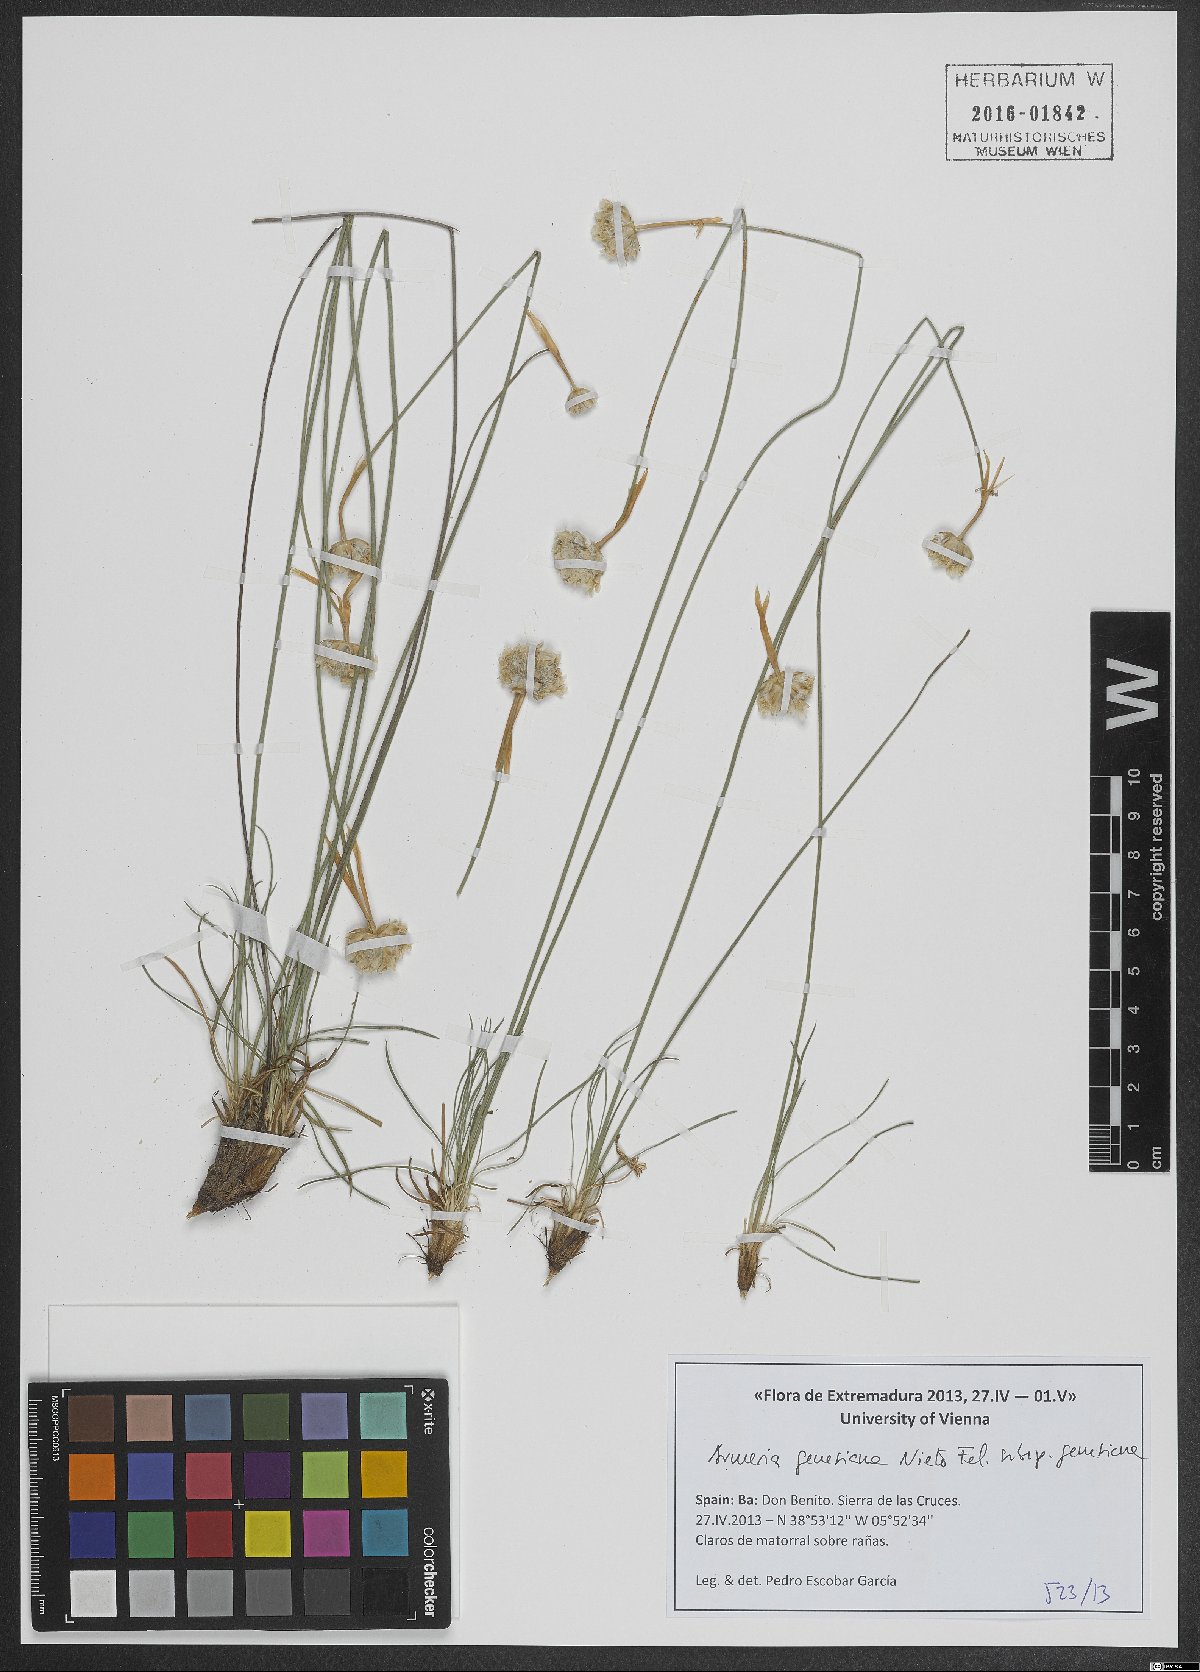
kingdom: Plantae
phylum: Tracheophyta
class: Magnoliopsida
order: Caryophyllales
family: Plumbaginaceae
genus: Armeria
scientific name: Armeria genesiana
